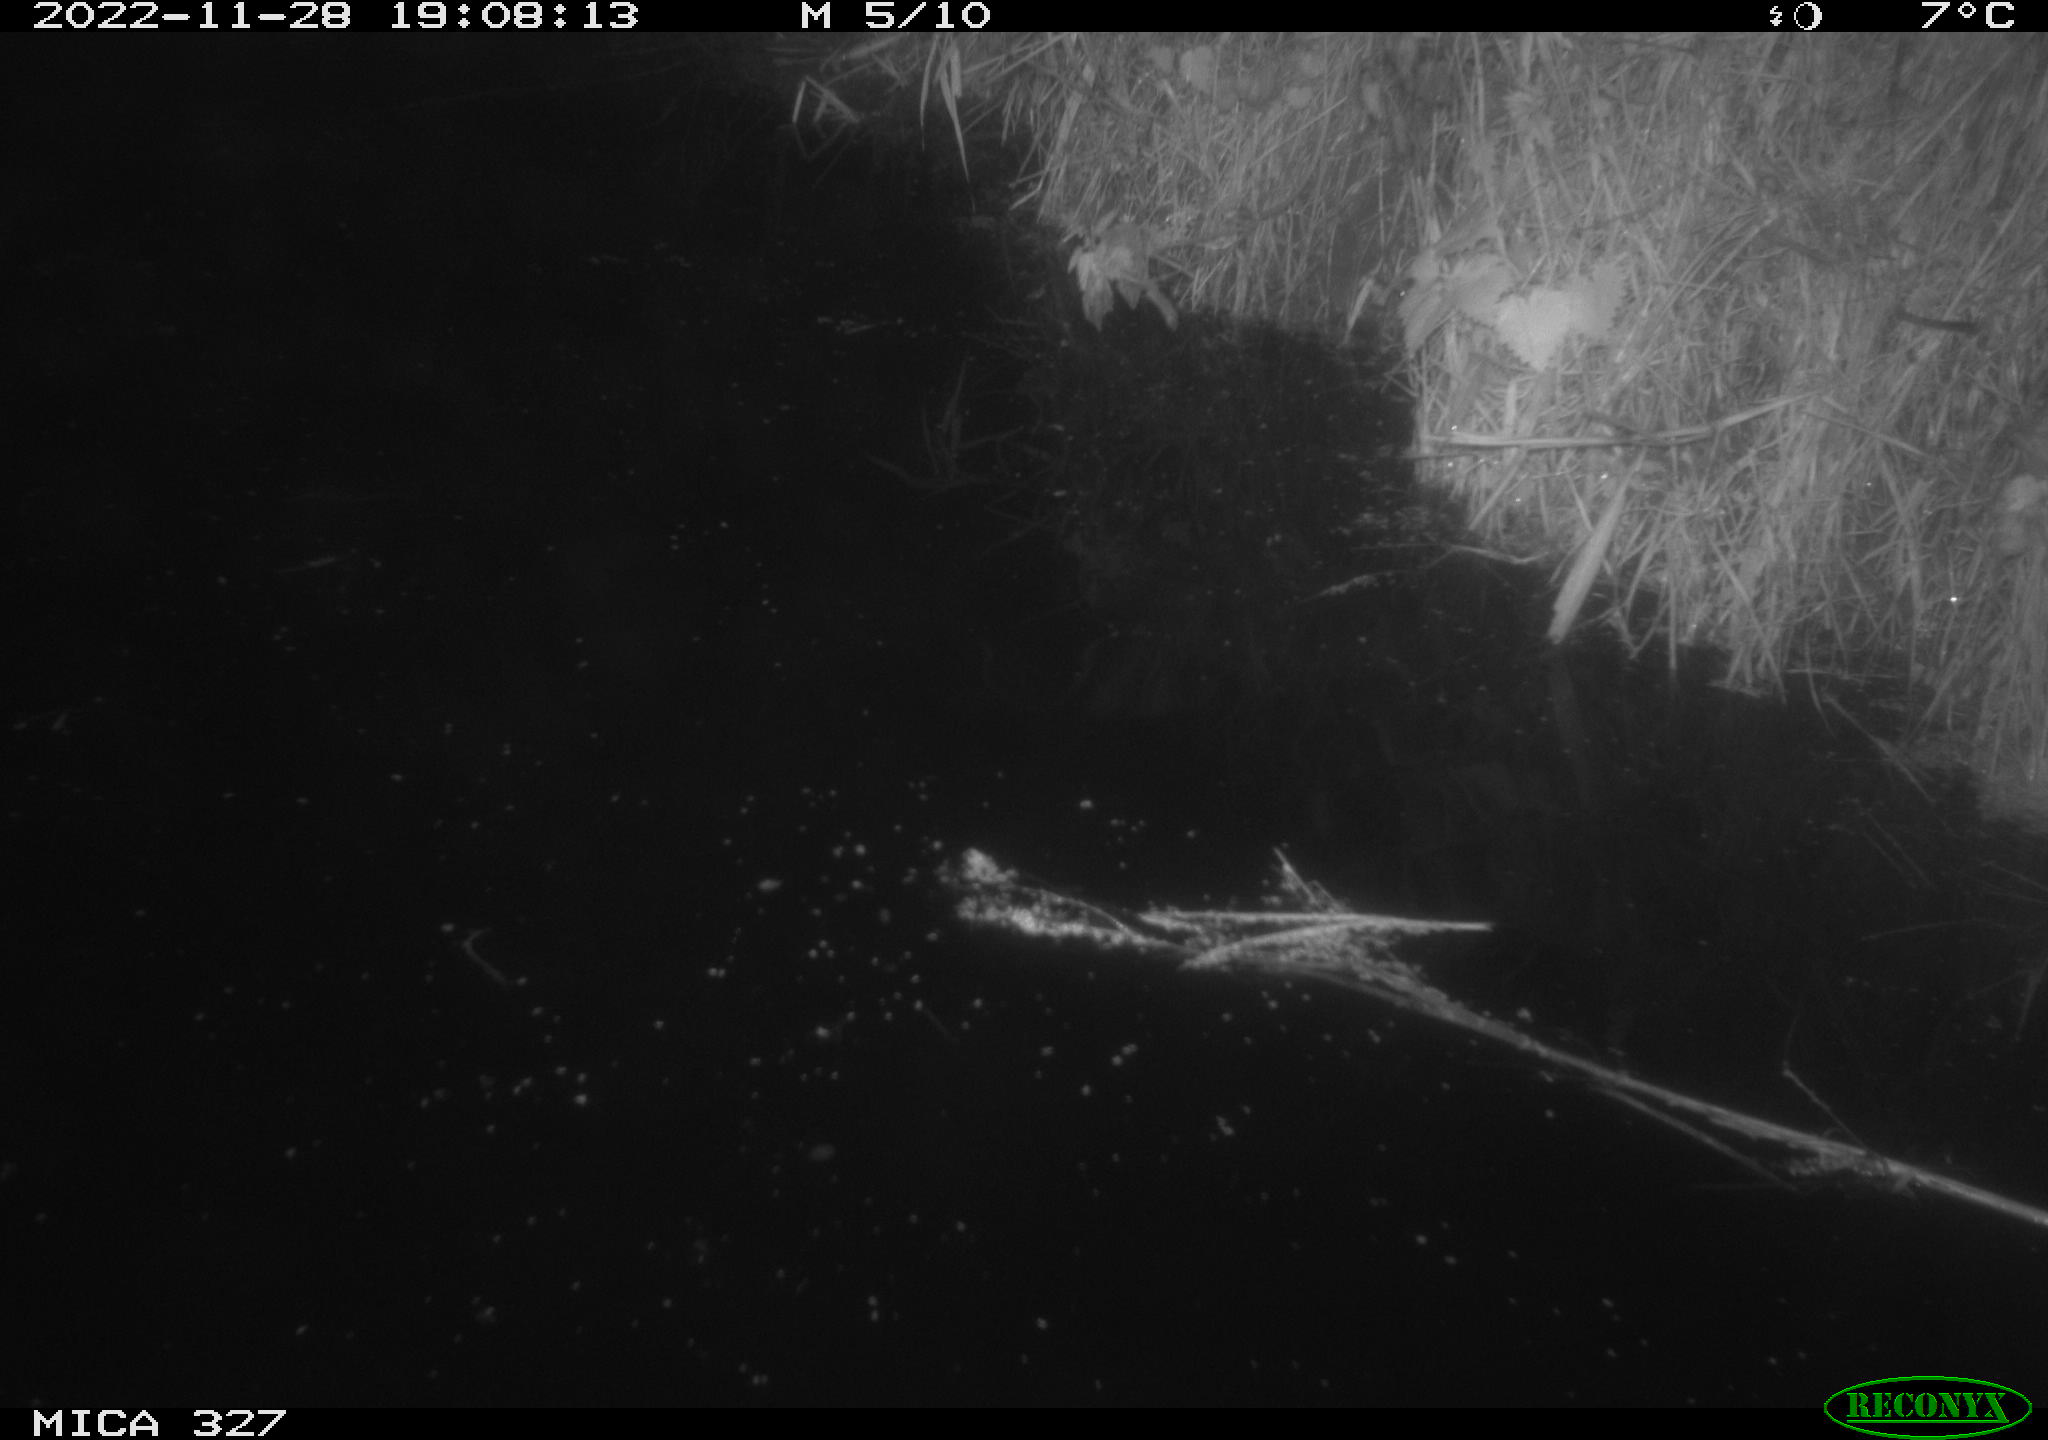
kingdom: Animalia
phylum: Chordata
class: Aves
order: Gruiformes
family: Rallidae
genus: Gallinula
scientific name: Gallinula chloropus
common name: Common moorhen
